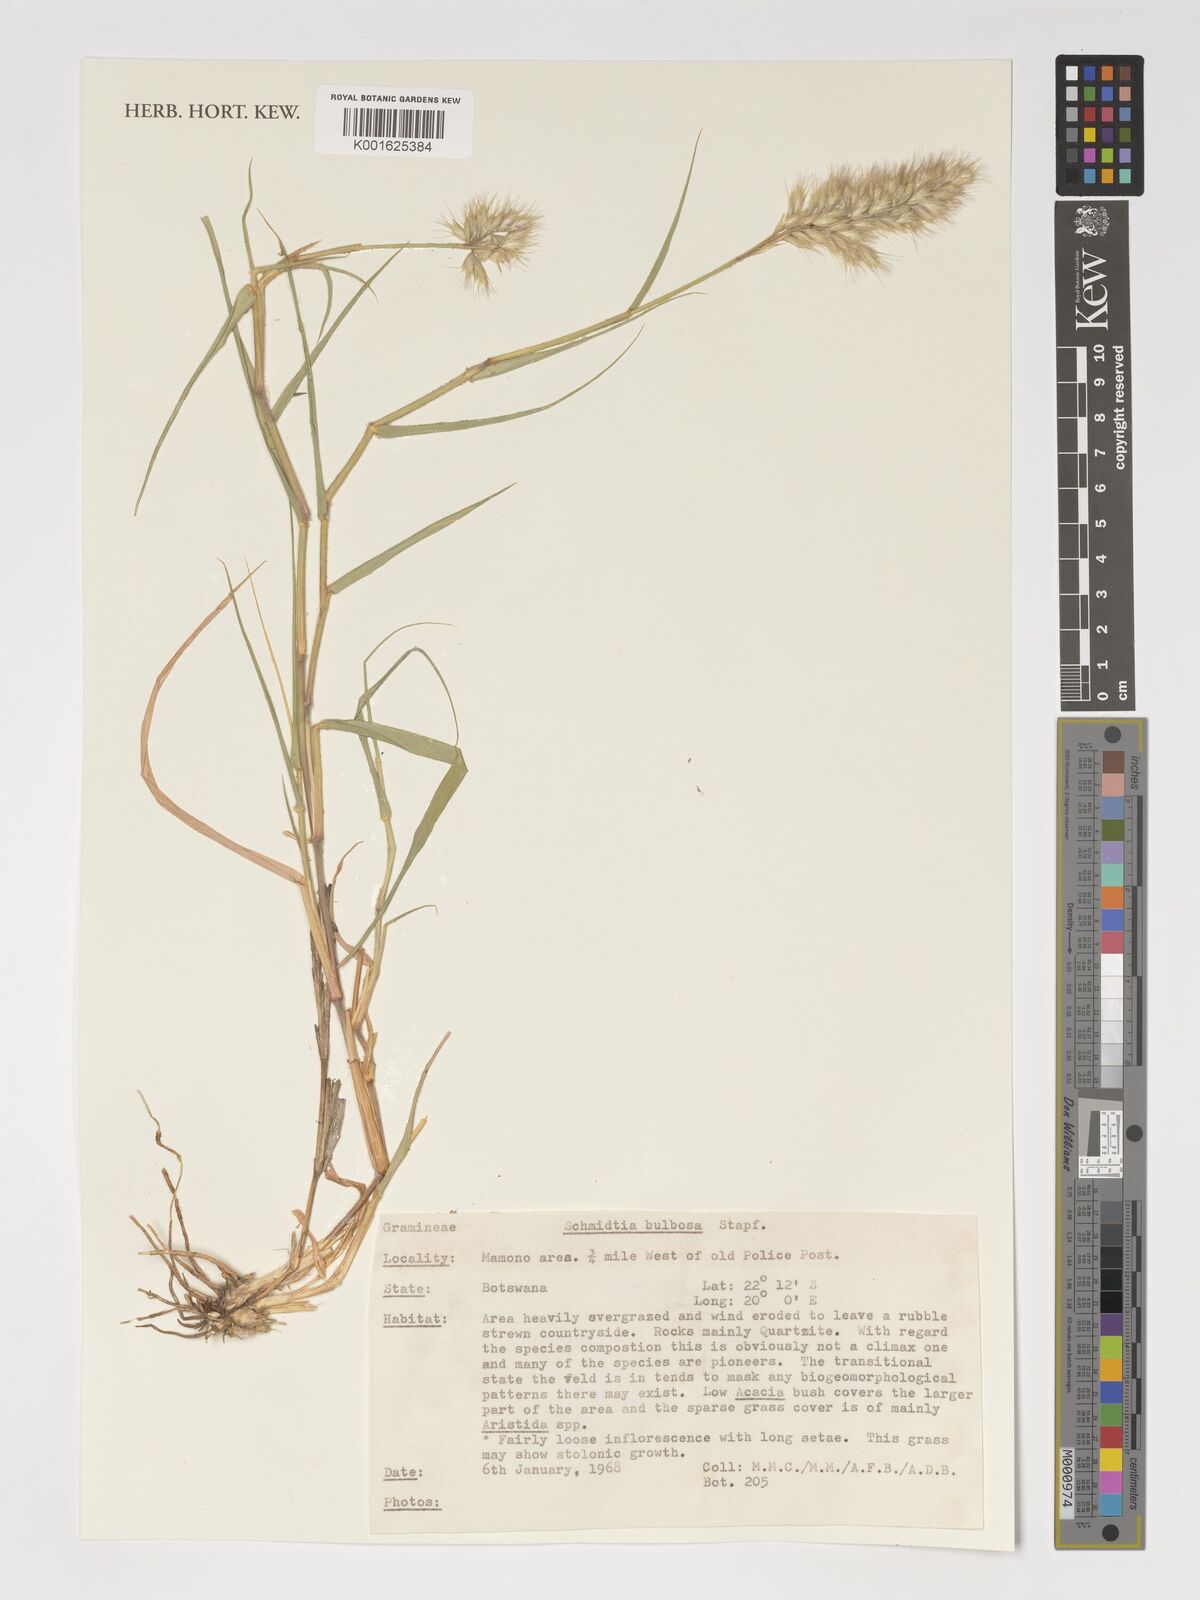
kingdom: Plantae
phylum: Tracheophyta
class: Liliopsida
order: Poales
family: Poaceae
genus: Schmidtia
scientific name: Schmidtia pappophoroides
